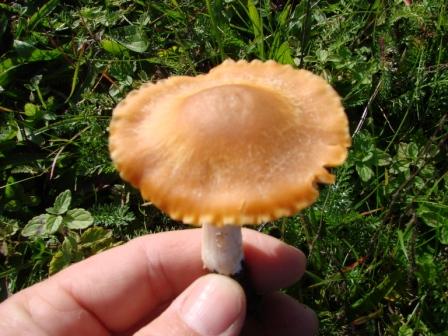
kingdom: Fungi
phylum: Basidiomycota
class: Agaricomycetes
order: Agaricales
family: Hygrophoraceae
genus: Cuphophyllus
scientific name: Cuphophyllus pratensis
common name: eng-vokshat
